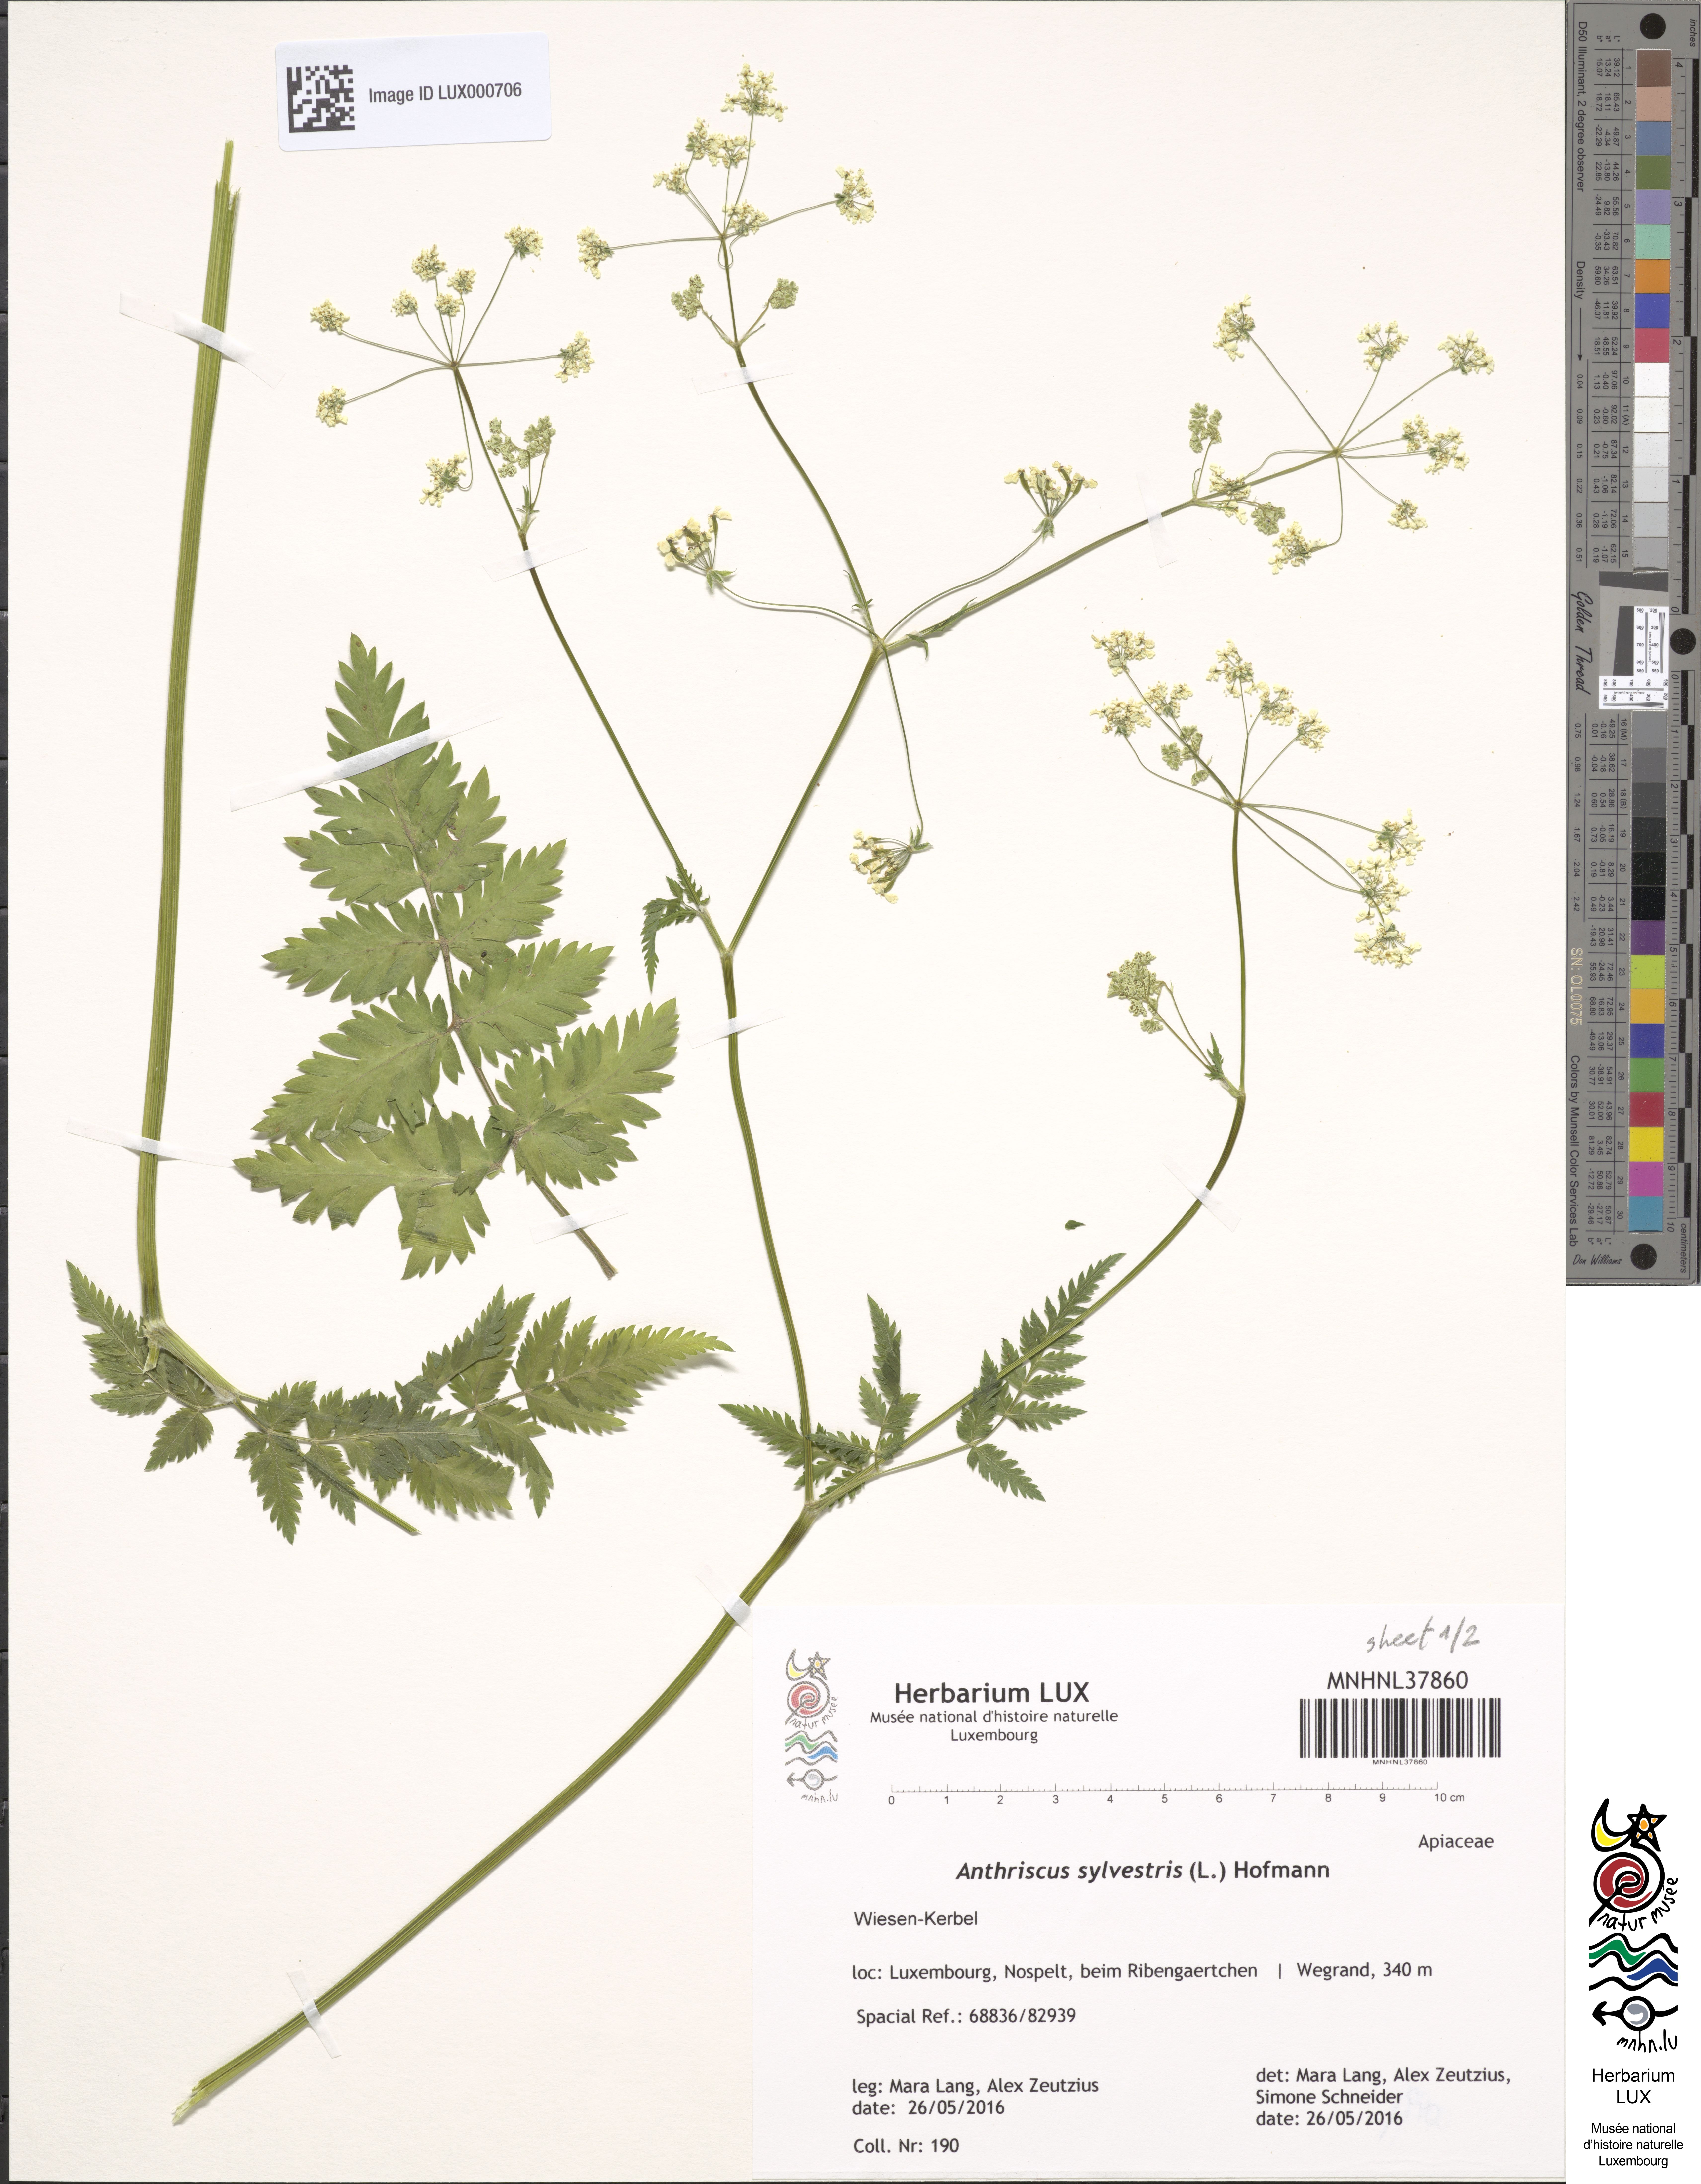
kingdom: Plantae
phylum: Tracheophyta
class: Magnoliopsida
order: Apiales
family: Apiaceae
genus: Anthriscus
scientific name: Anthriscus sylvestris
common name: Cow parsley
